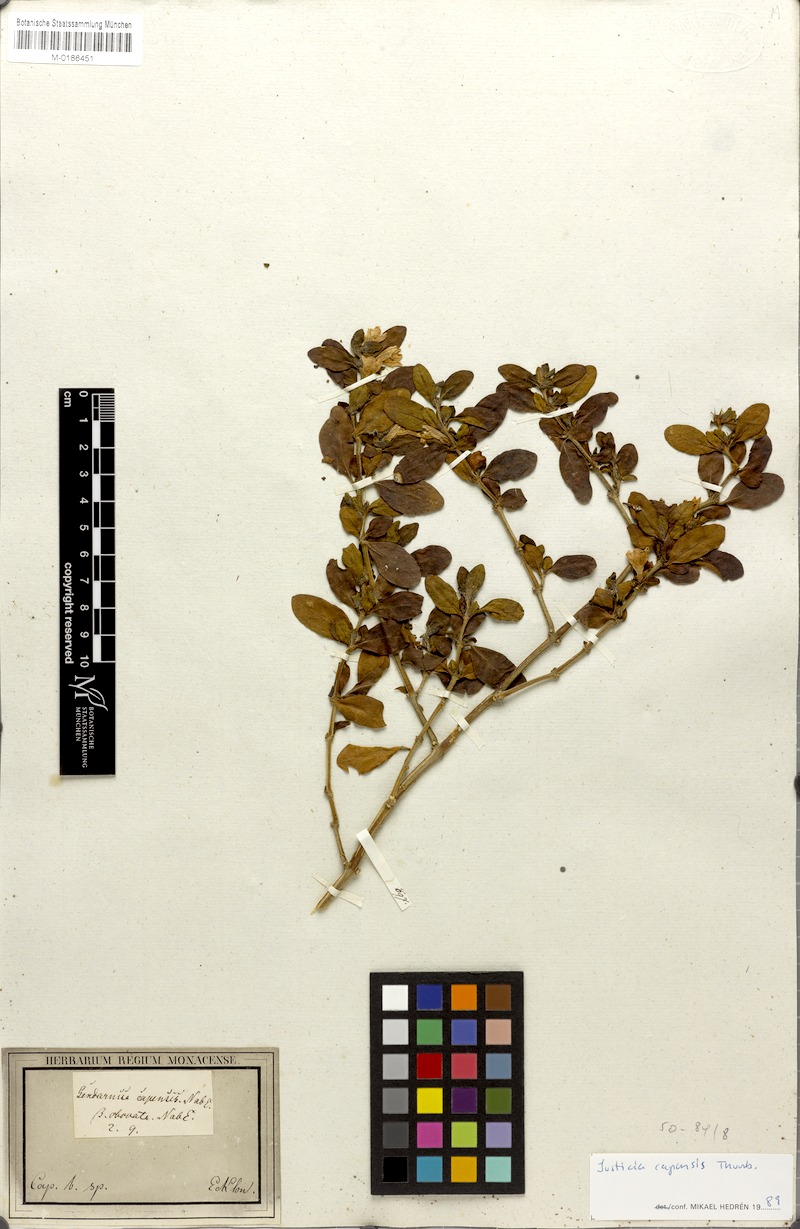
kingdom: Plantae
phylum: Tracheophyta
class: Magnoliopsida
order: Lamiales
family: Acanthaceae
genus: Justicia
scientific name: Justicia capensis
